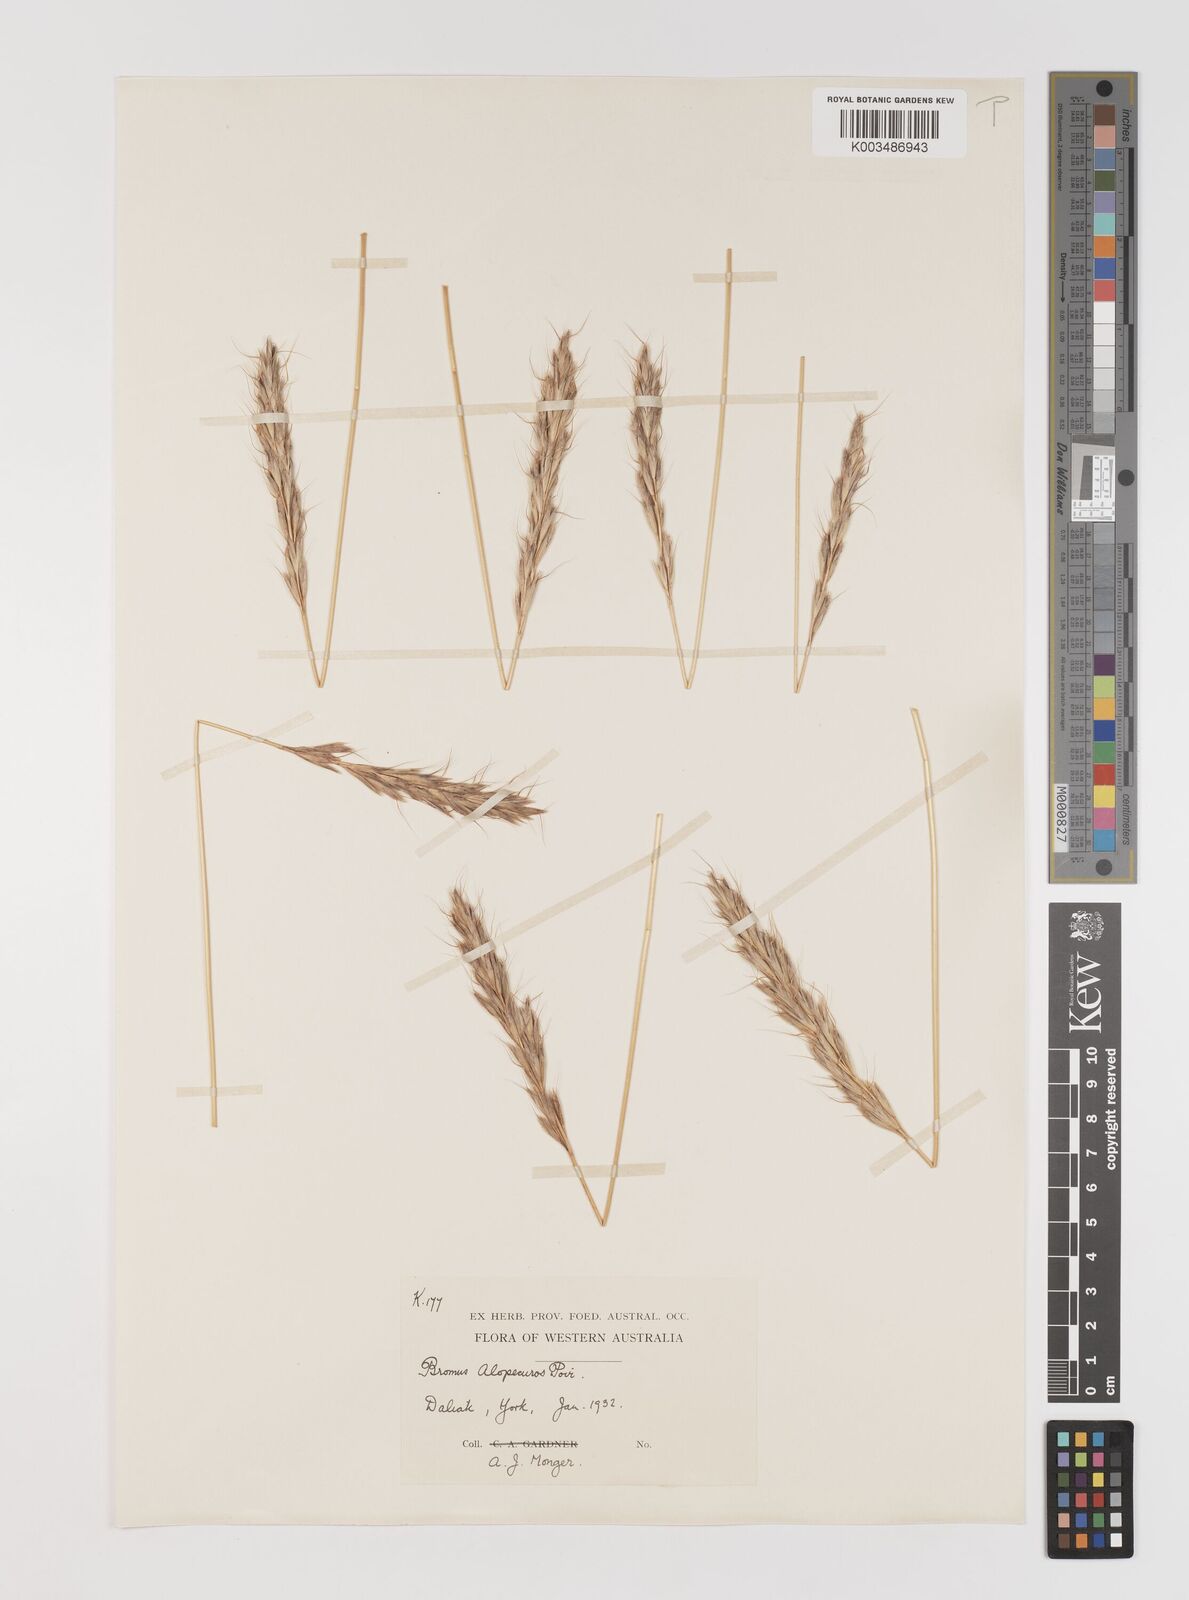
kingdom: Plantae
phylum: Tracheophyta
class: Liliopsida
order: Poales
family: Poaceae
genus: Bromus
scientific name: Bromus alopecuros
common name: Weedy brome
